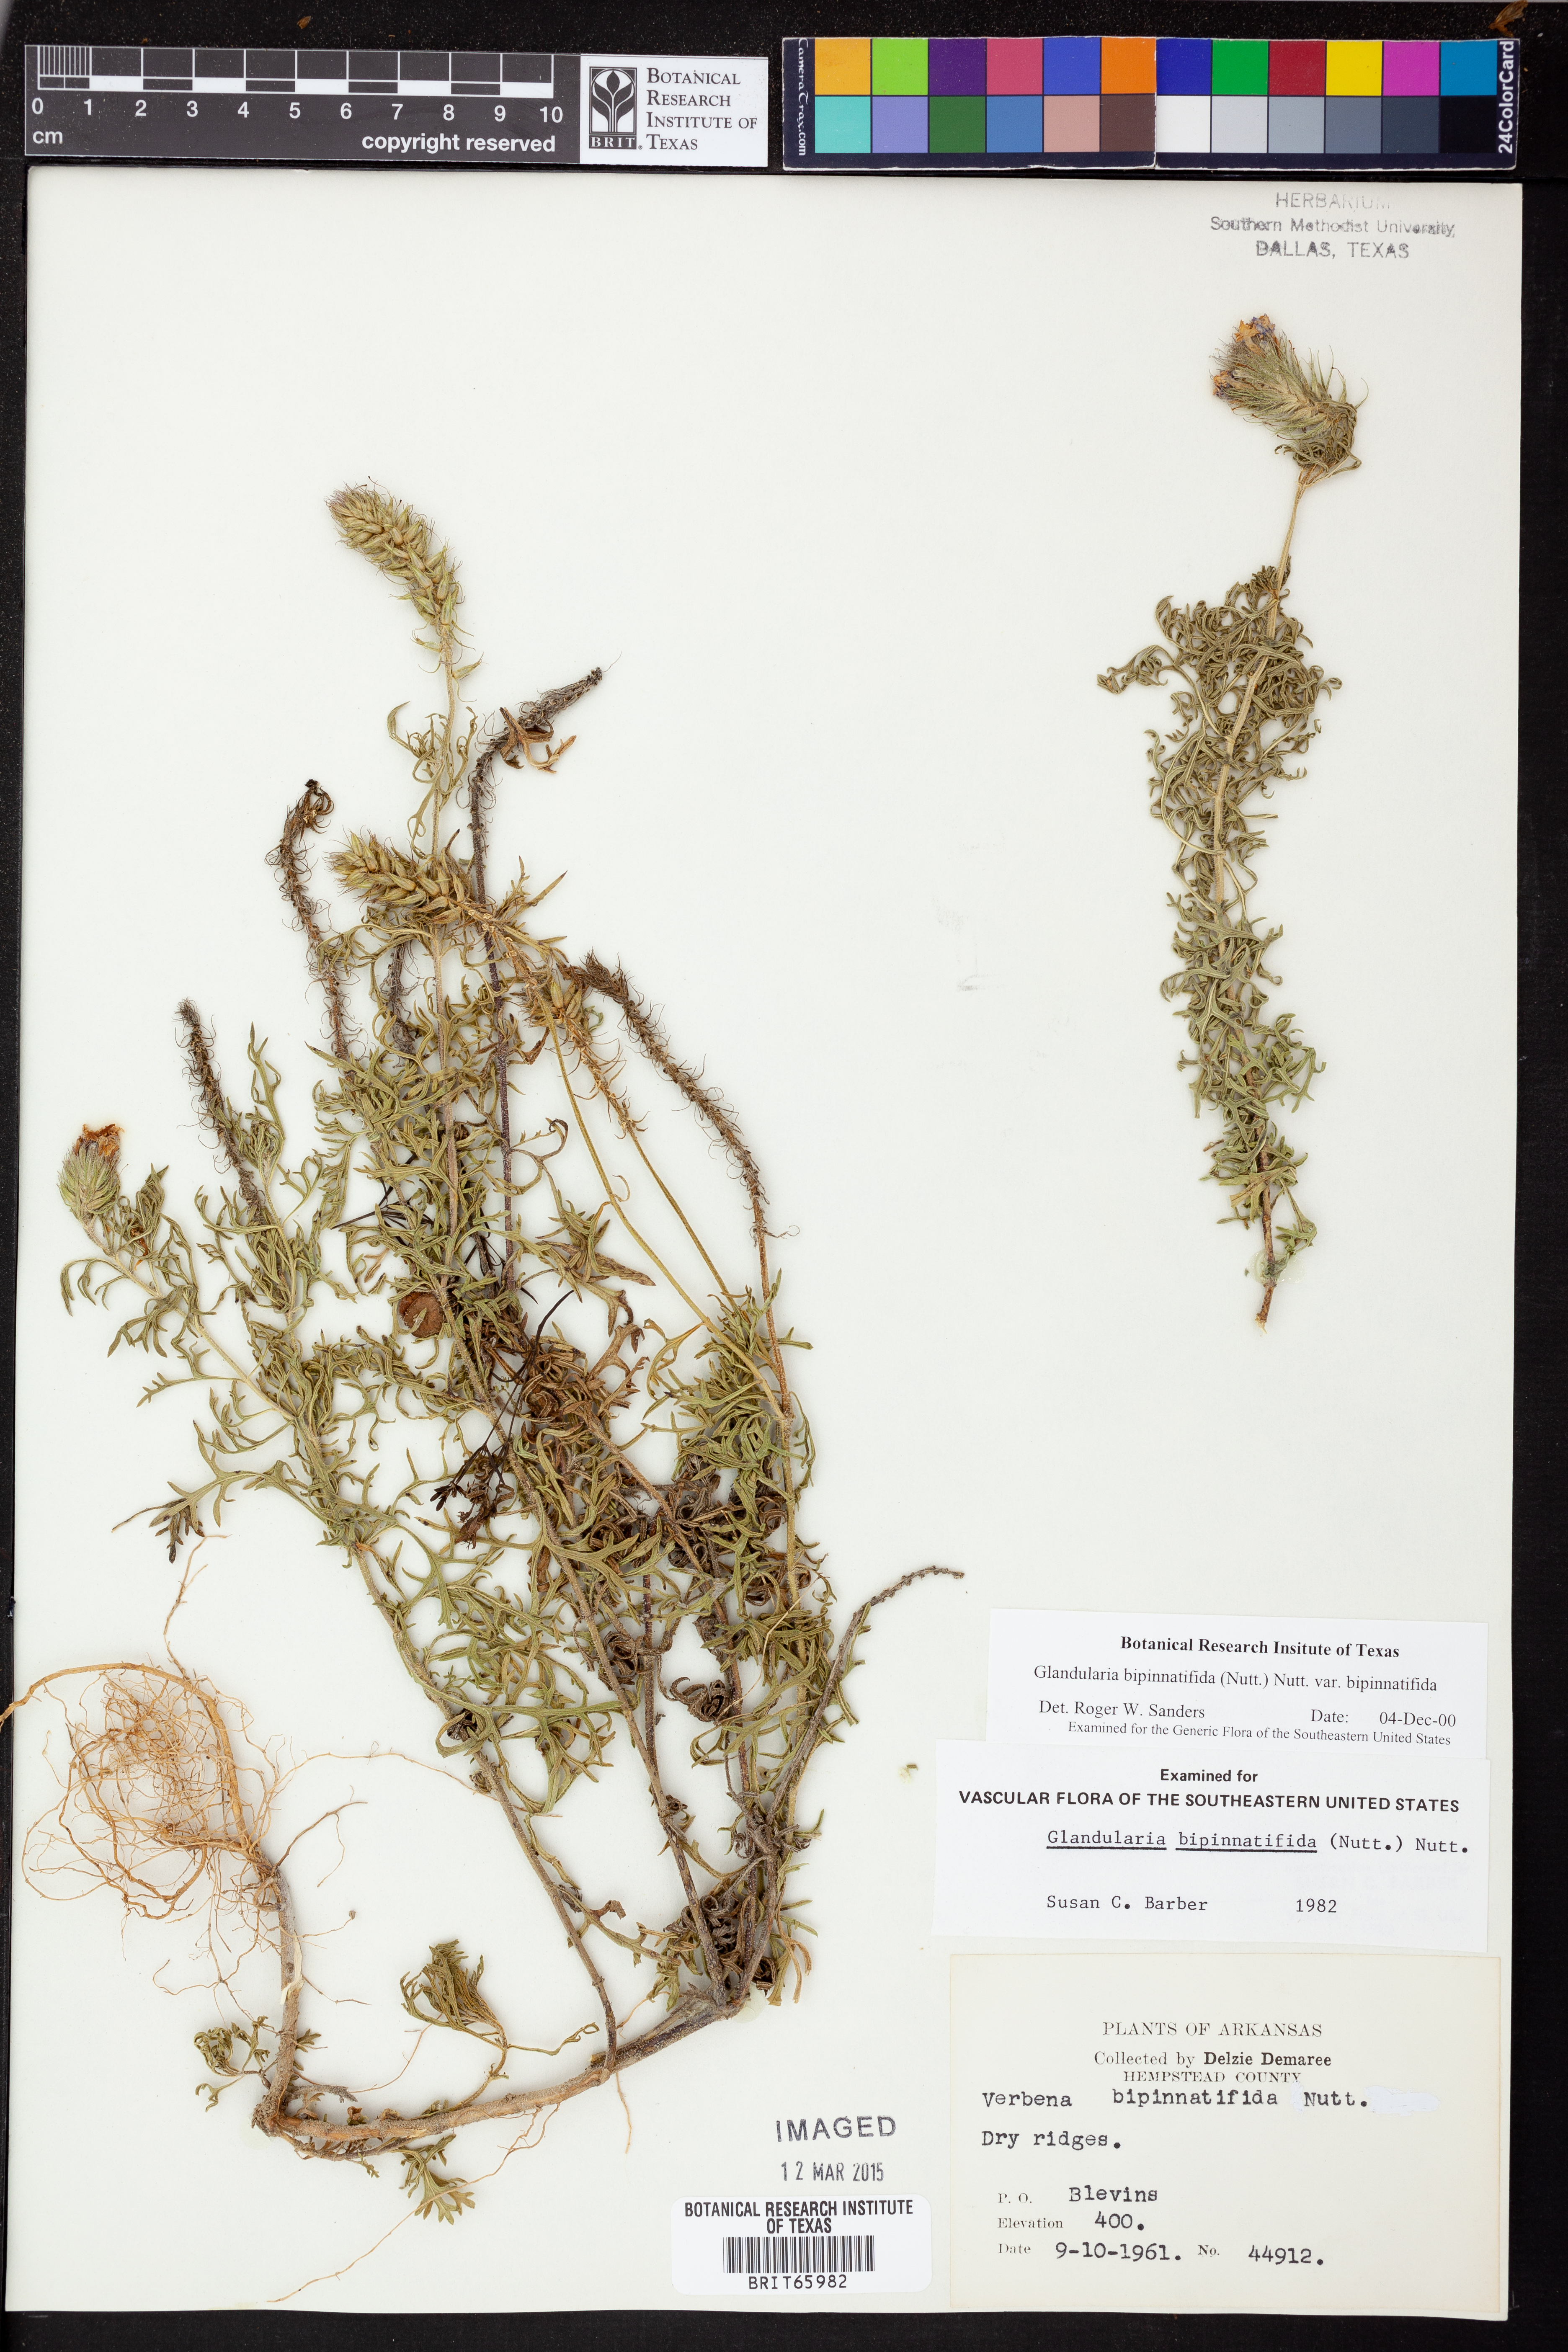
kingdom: Plantae
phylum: Tracheophyta
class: Magnoliopsida
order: Lamiales
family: Verbenaceae
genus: Verbena
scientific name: Verbena bipinnatifida
